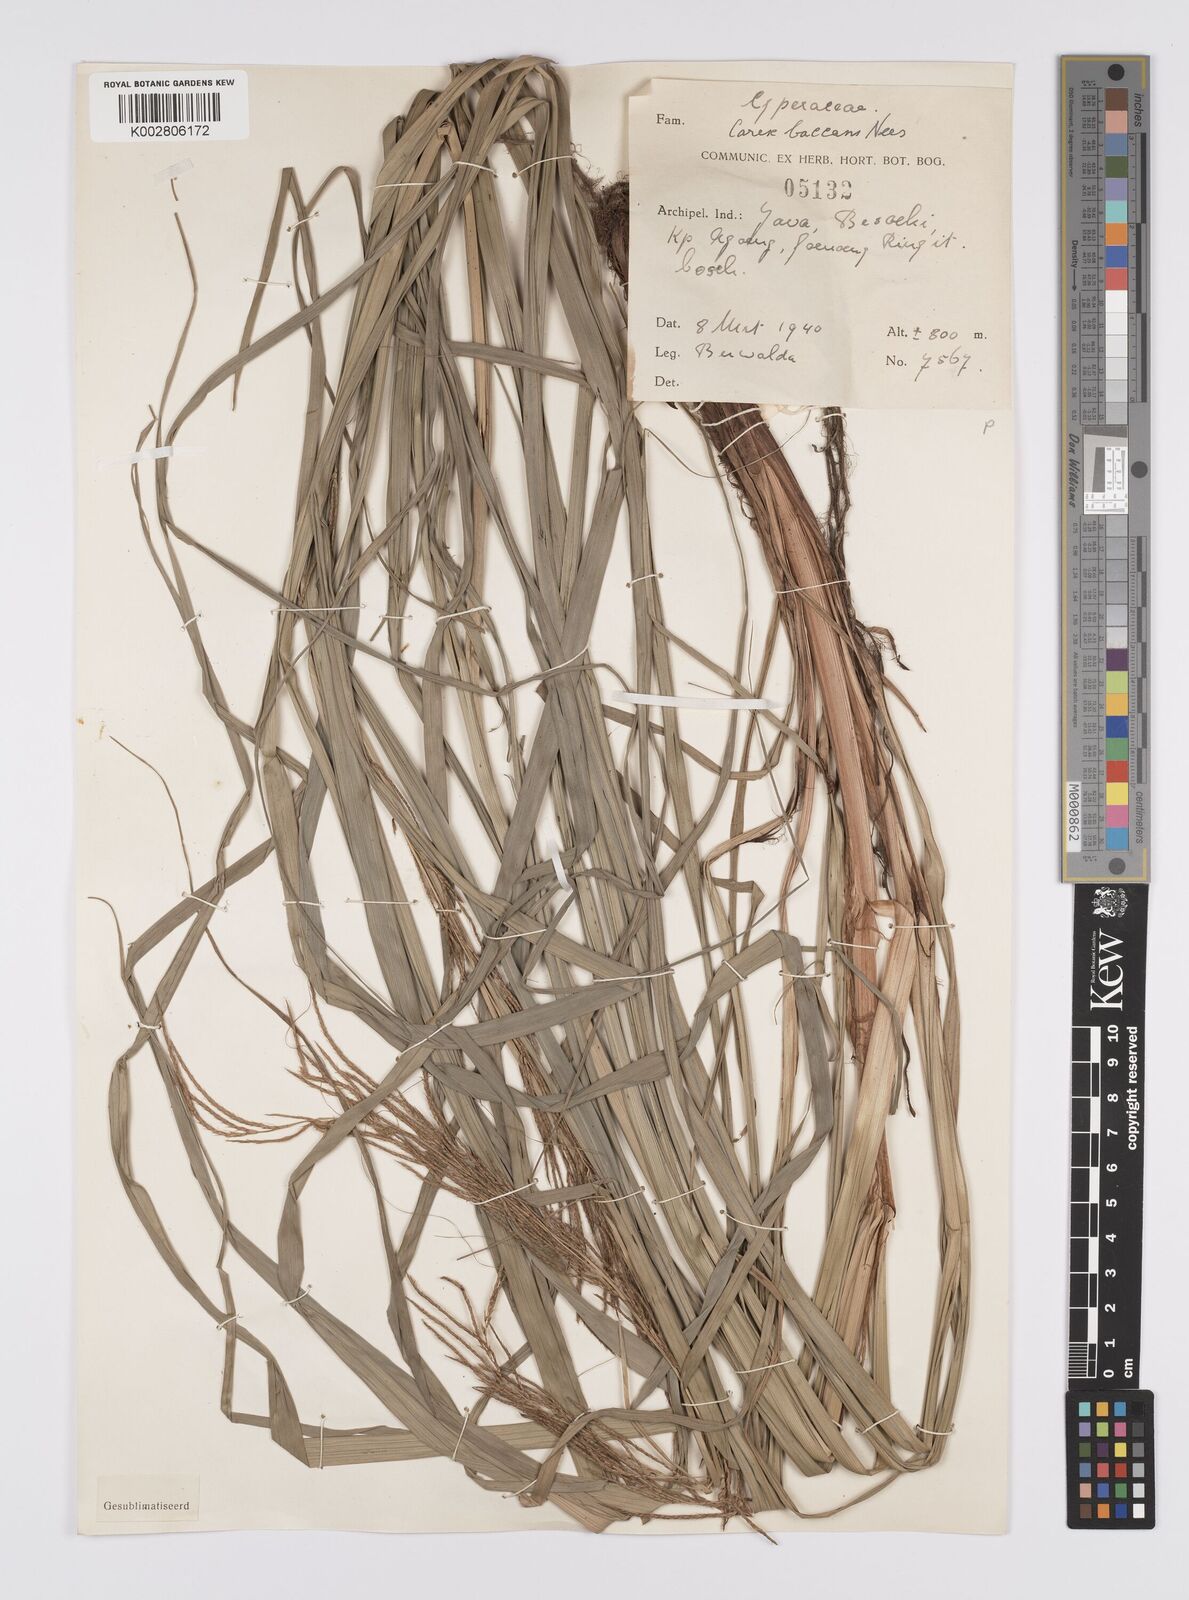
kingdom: Plantae
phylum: Tracheophyta
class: Liliopsida
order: Poales
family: Cyperaceae
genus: Carex
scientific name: Carex baccans
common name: Crimson seeded sedge
